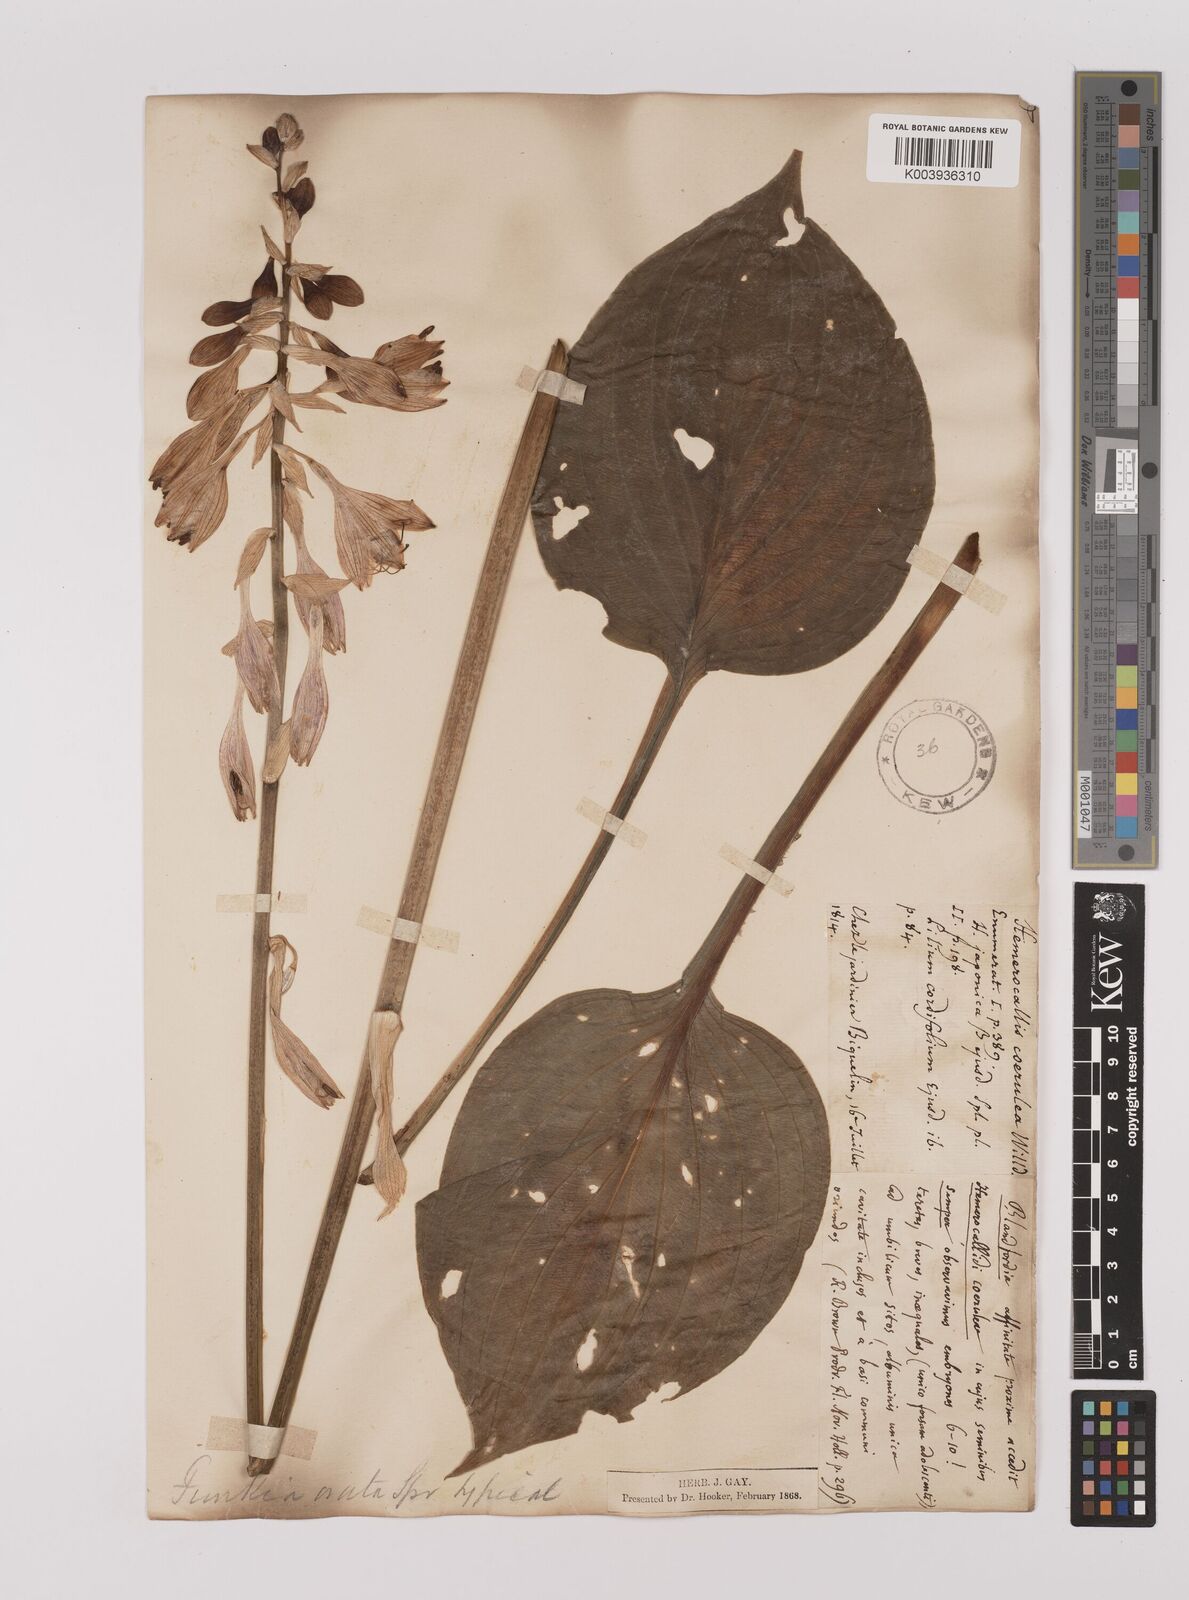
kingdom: Plantae
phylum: Tracheophyta
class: Liliopsida
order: Asparagales
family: Asparagaceae
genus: Hosta
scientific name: Hosta ventricosa
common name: Blue plantain-lily
